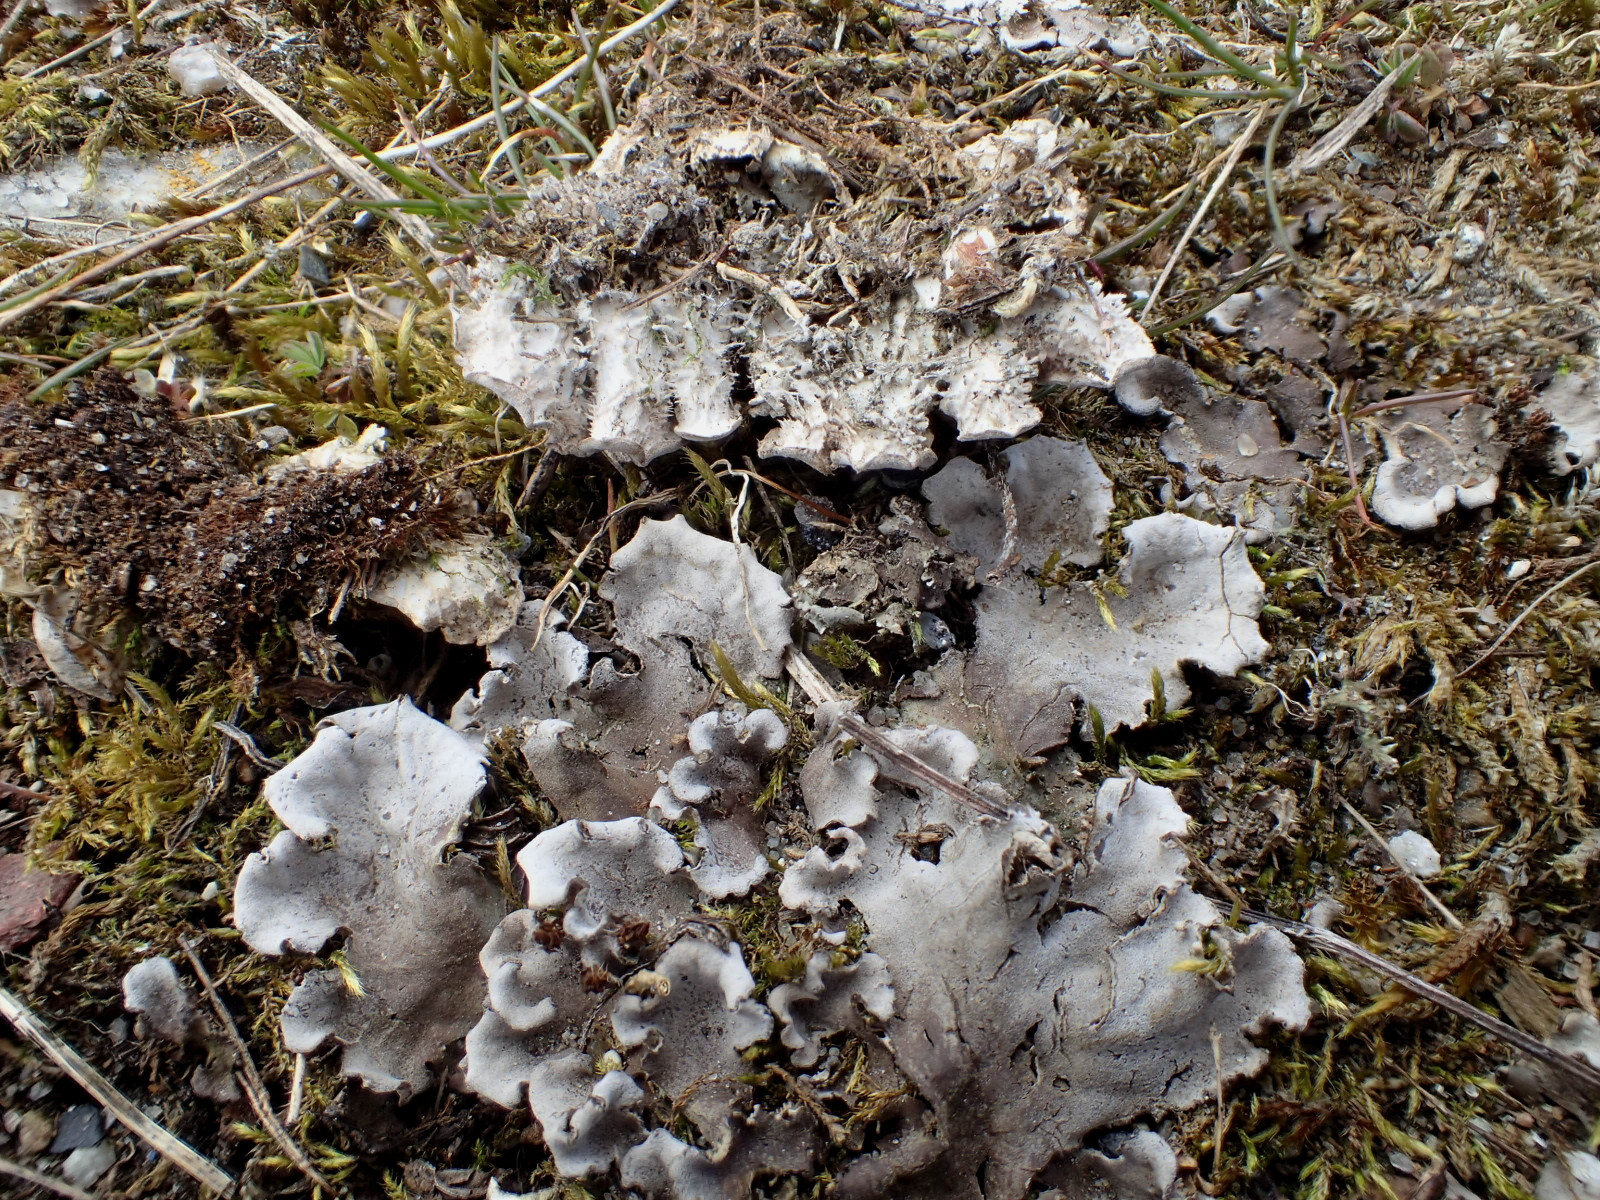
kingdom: Fungi
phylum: Ascomycota
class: Lecanoromycetes
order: Peltigerales
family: Peltigeraceae
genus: Peltigera
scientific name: Peltigera rufescens
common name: brun skjoldlav
